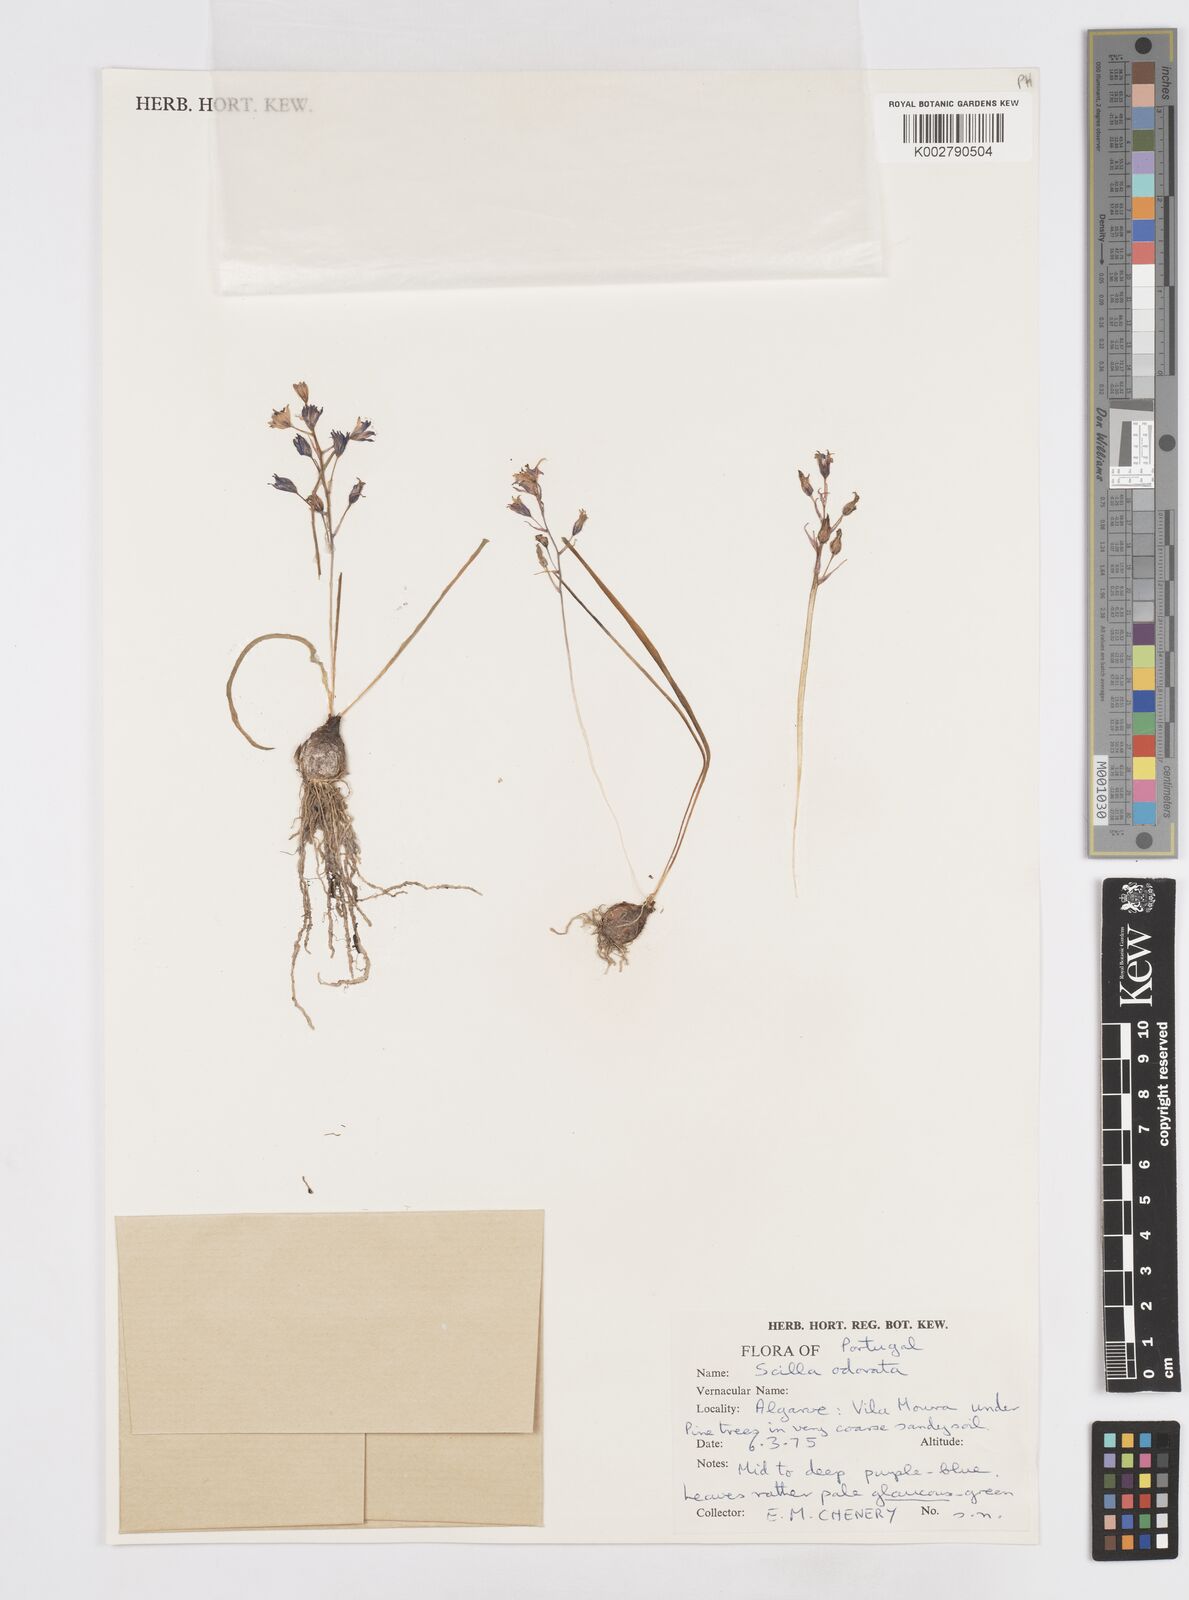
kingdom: Plantae
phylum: Tracheophyta
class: Liliopsida
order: Asparagales
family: Asparagaceae
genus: Scilla
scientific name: Scilla verna
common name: Spring squill
